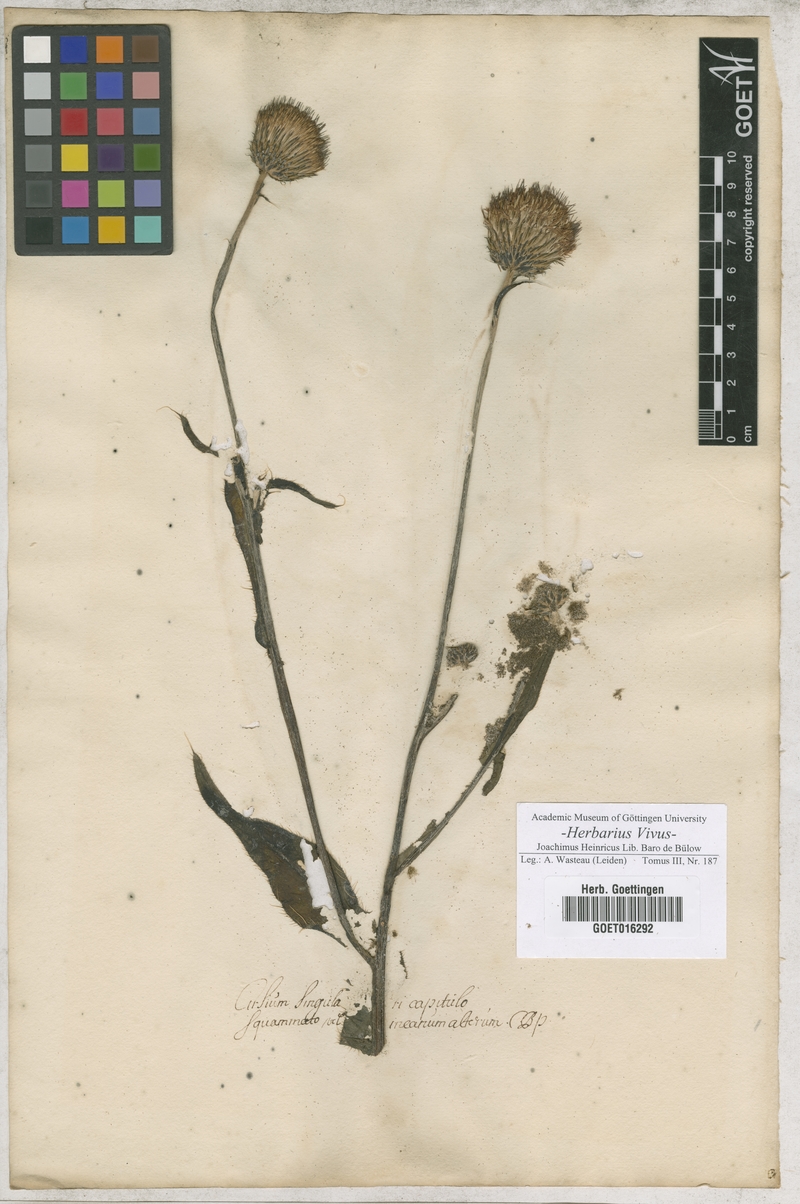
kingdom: Plantae
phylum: Tracheophyta
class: Magnoliopsida
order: Asterales
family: Asteraceae
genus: Cirsium
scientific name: Cirsium helenioides
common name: Melancholy thistle
